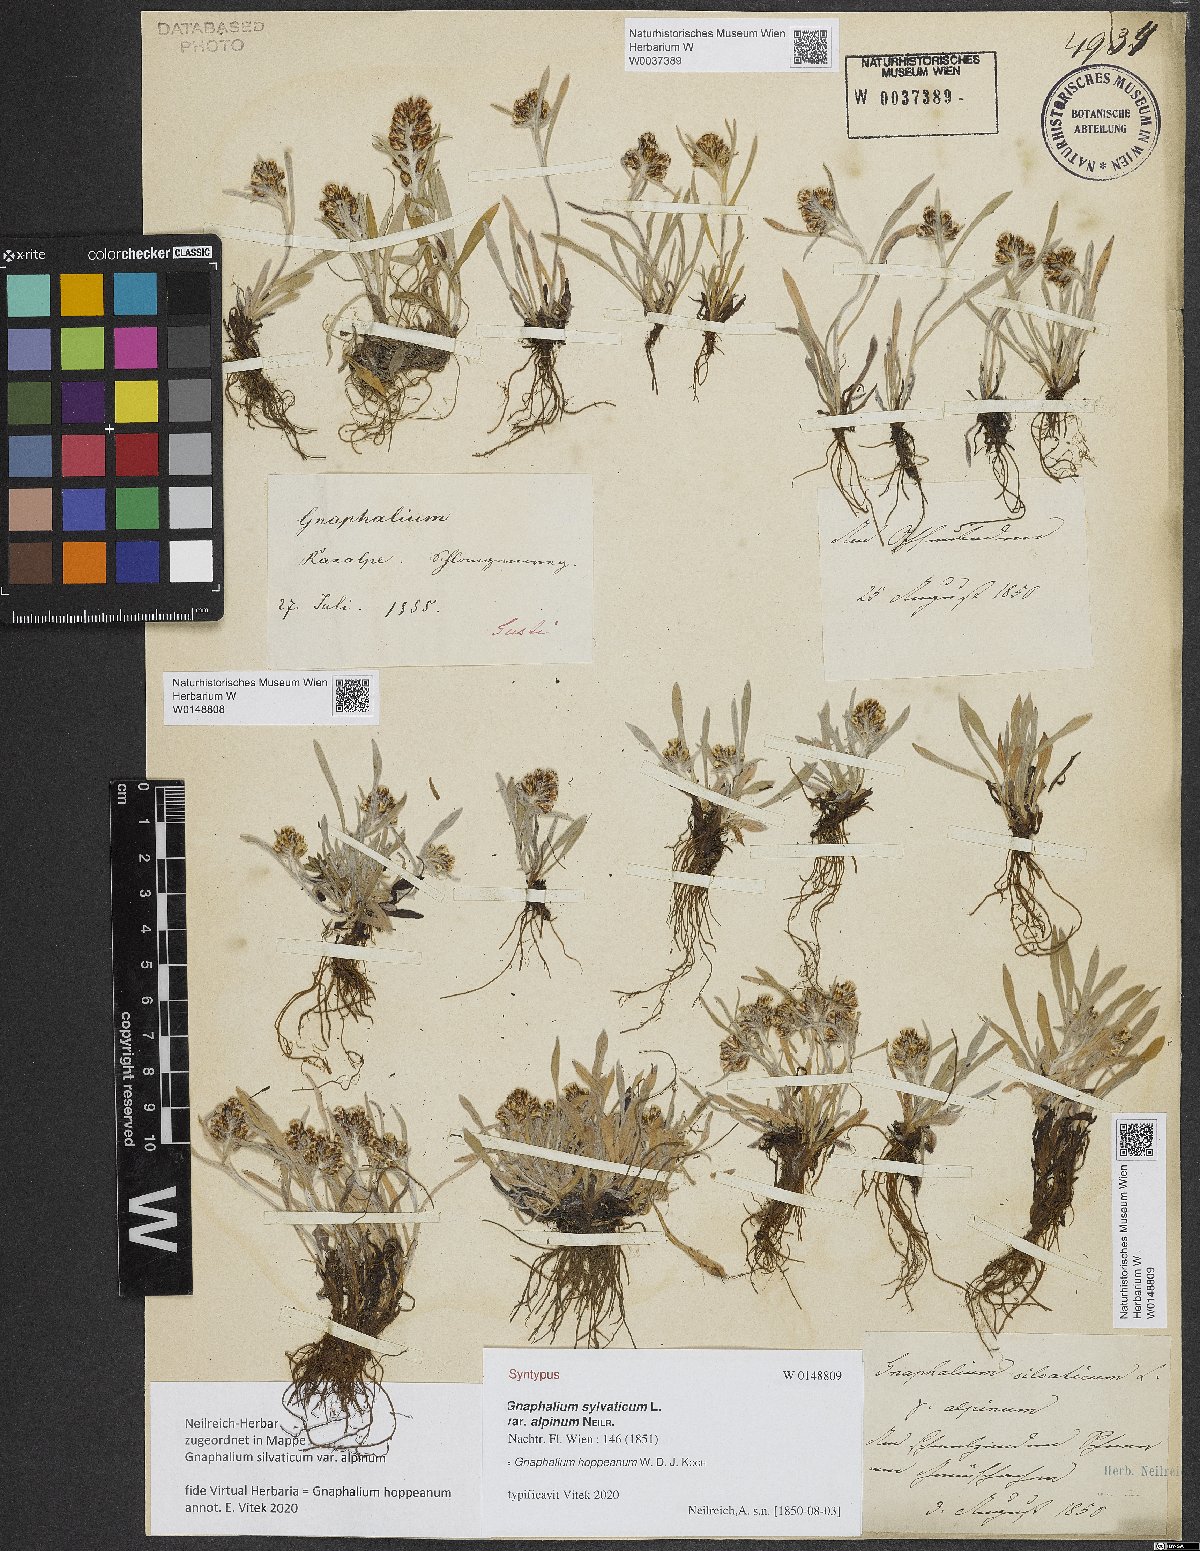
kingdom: Plantae
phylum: Tracheophyta
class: Magnoliopsida
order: Asterales
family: Asteraceae
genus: Gnaphalium
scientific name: Gnaphalium sylvaticum
